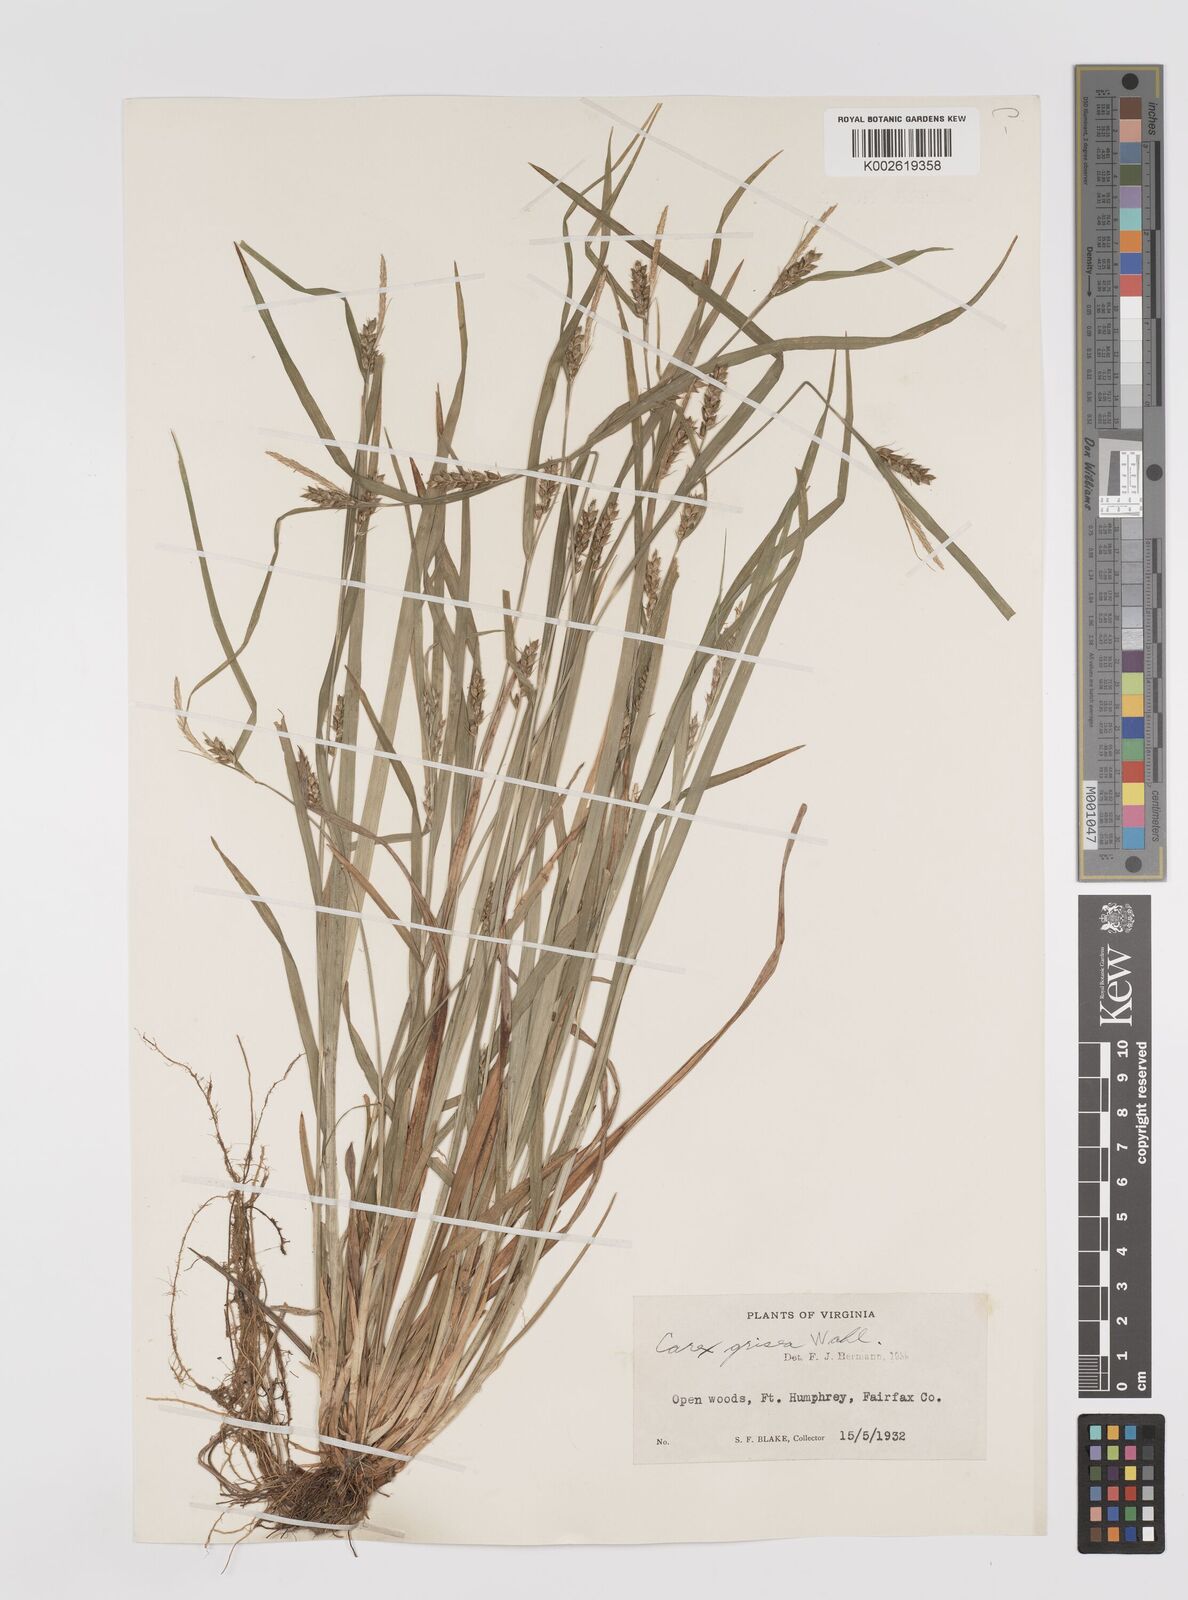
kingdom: Plantae
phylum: Tracheophyta
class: Liliopsida
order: Poales
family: Cyperaceae
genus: Carex
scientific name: Carex grisea
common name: Eastern narrow-leaved sedge
